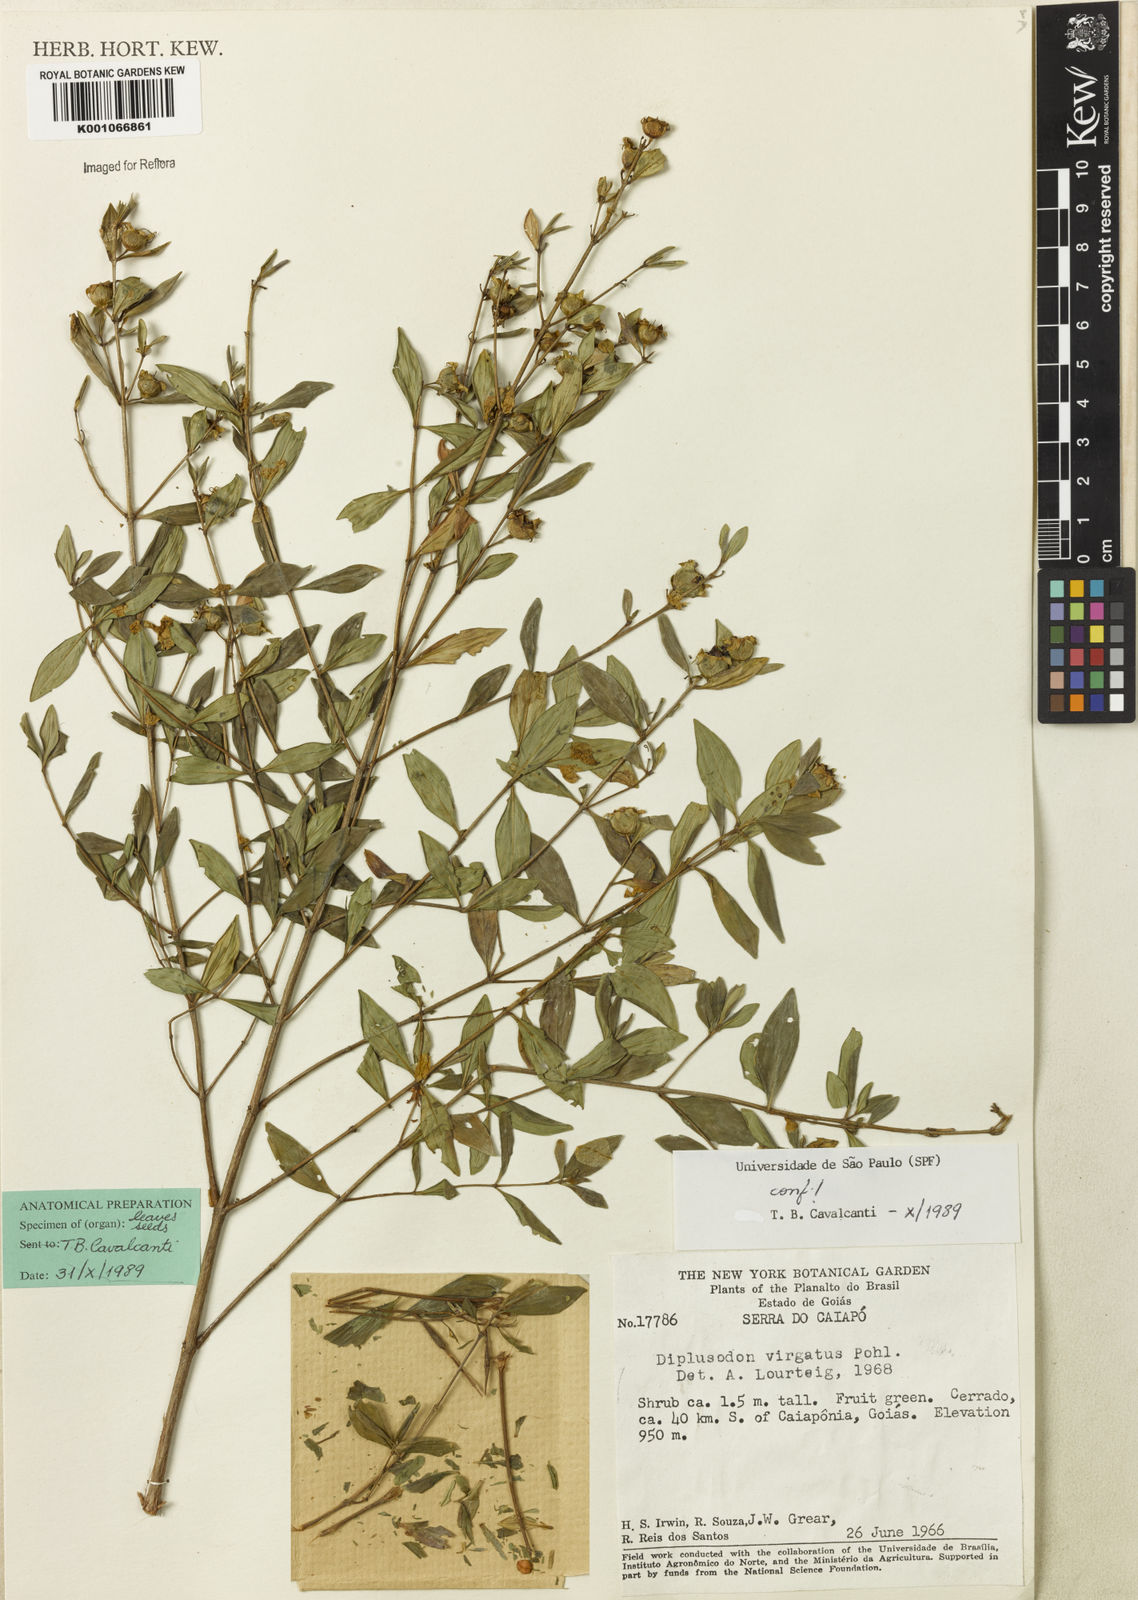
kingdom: Plantae
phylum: Tracheophyta
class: Magnoliopsida
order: Myrtales
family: Lythraceae
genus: Diplusodon
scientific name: Diplusodon virgatus
